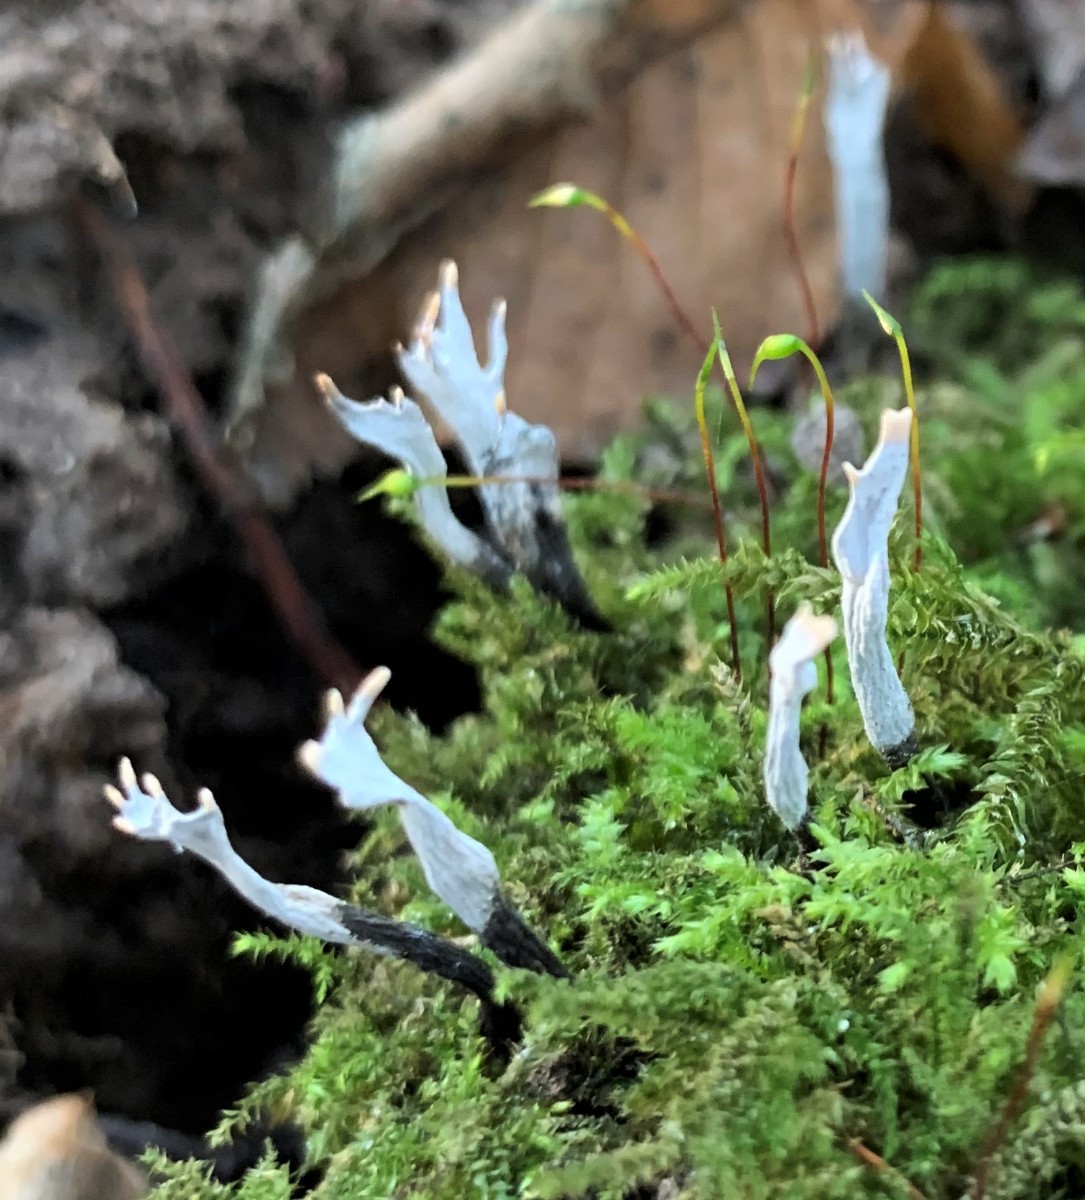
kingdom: Fungi
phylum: Ascomycota
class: Sordariomycetes
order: Xylariales
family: Xylariaceae
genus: Xylaria
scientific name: Xylaria hypoxylon
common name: grenet stødsvamp
